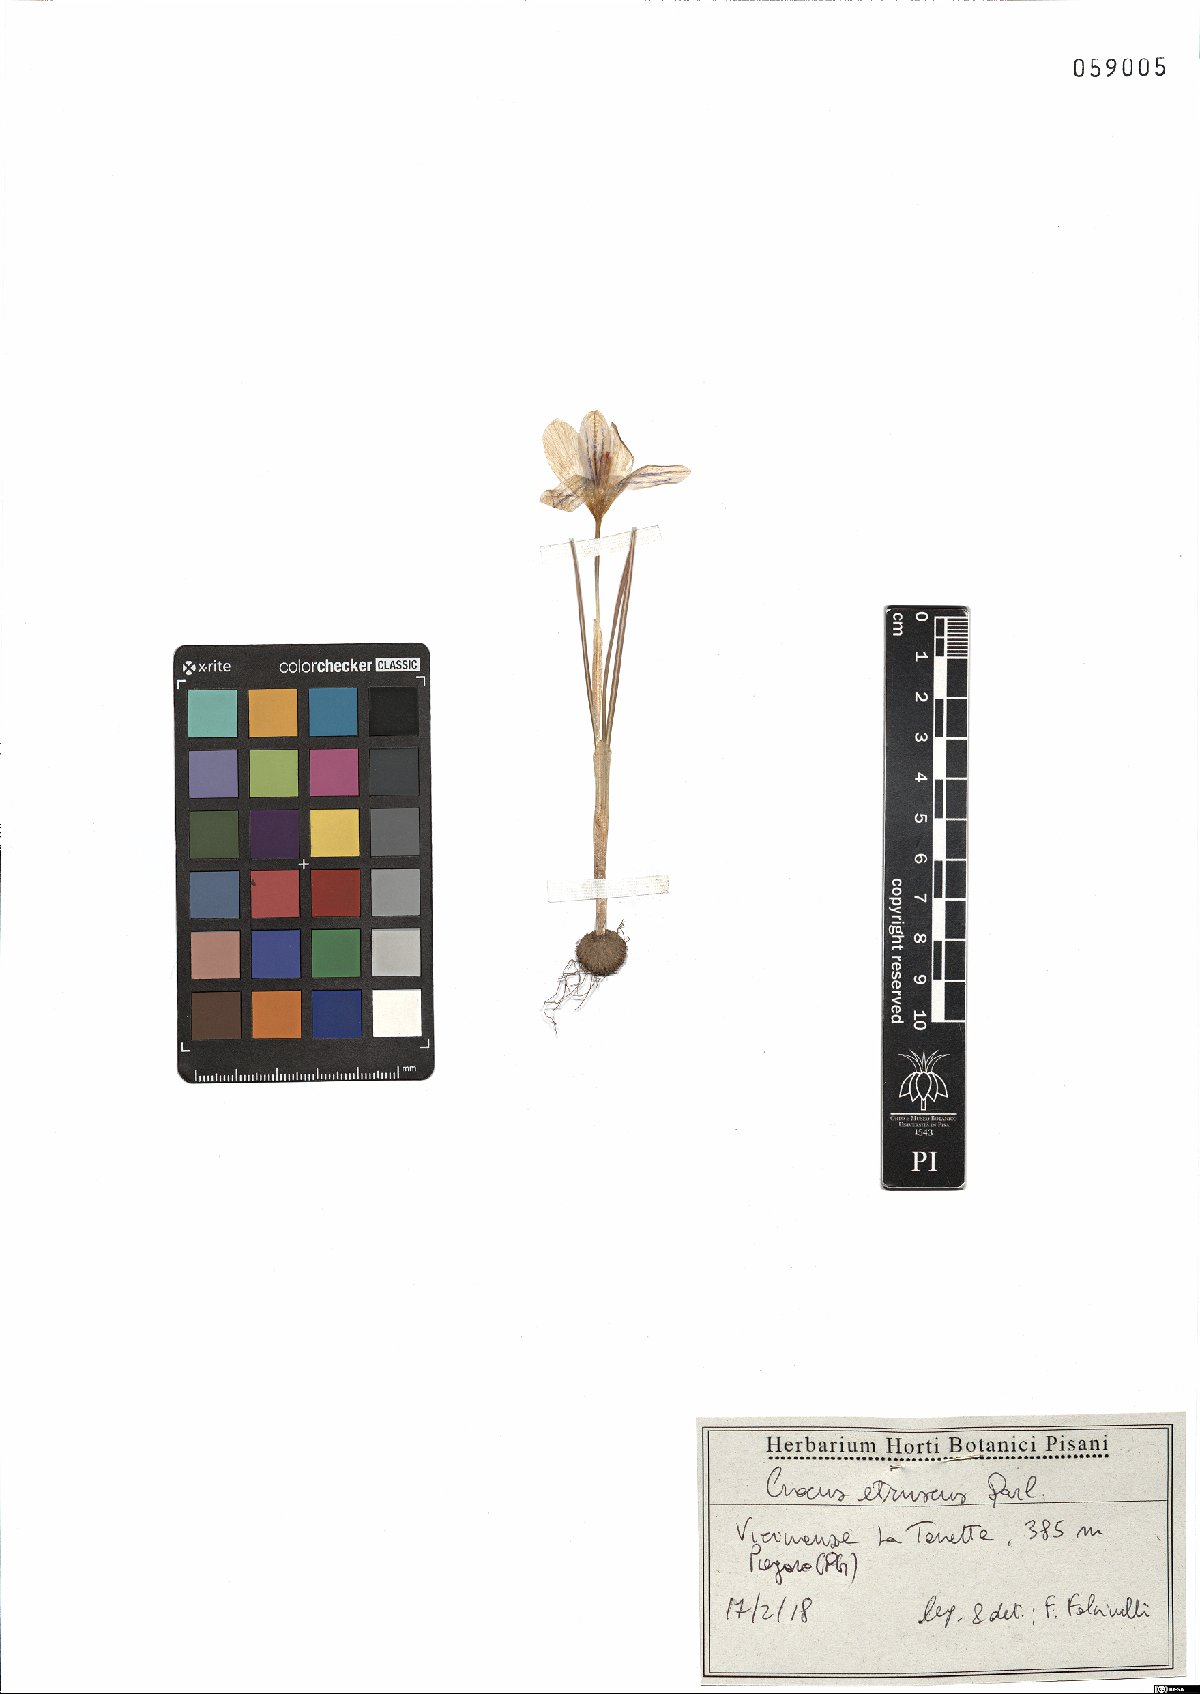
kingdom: Plantae
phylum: Tracheophyta
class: Liliopsida
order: Asparagales
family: Iridaceae
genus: Crocus
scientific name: Crocus etruscus
